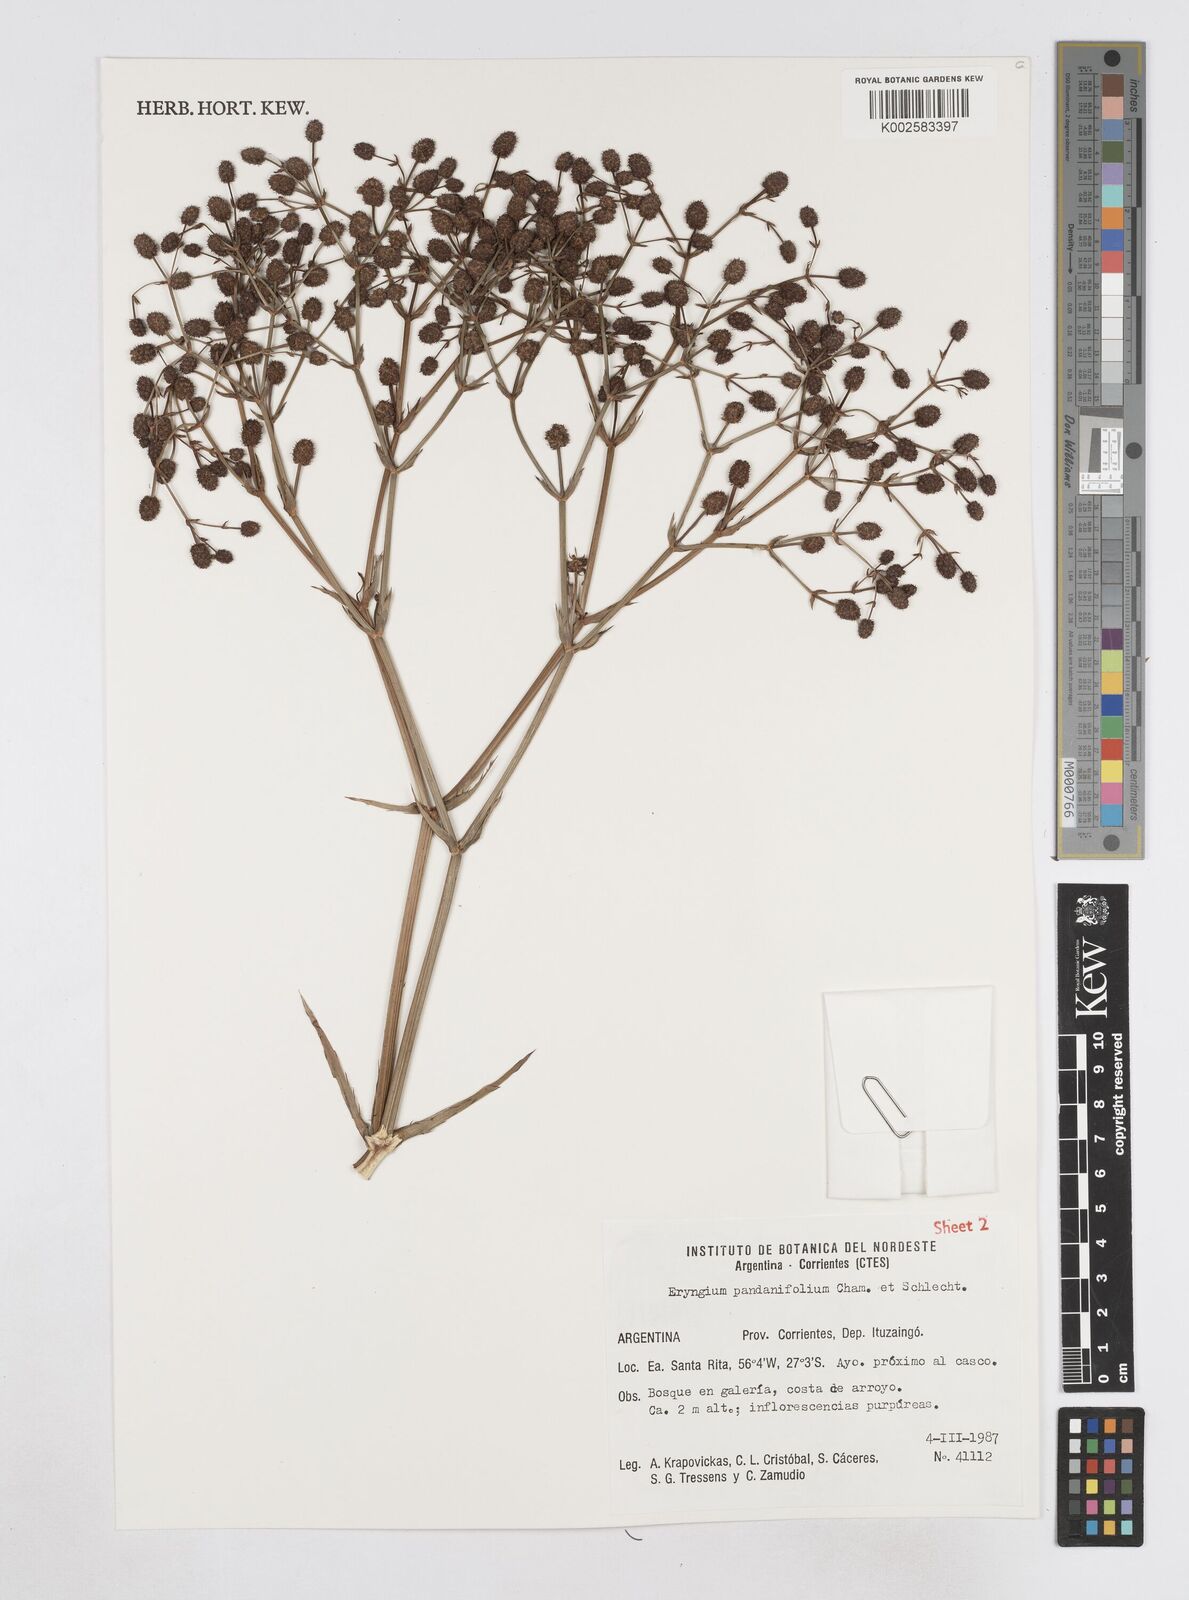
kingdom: Plantae
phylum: Tracheophyta
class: Magnoliopsida
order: Apiales
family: Apiaceae
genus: Eryngium
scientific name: Eryngium pandanifolium
